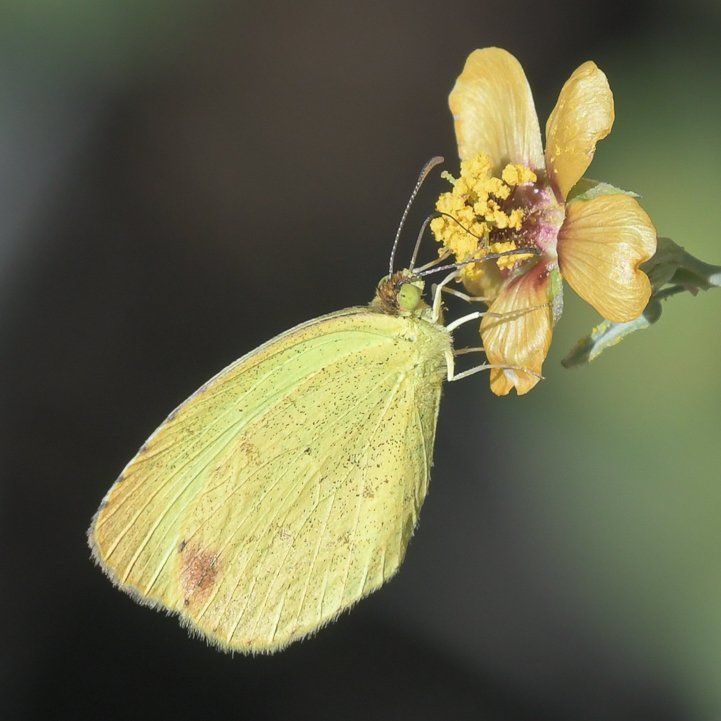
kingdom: Animalia
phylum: Arthropoda
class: Insecta
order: Lepidoptera
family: Pieridae
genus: Pyrisitia
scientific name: Pyrisitia nise
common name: Mimosa Yellow
